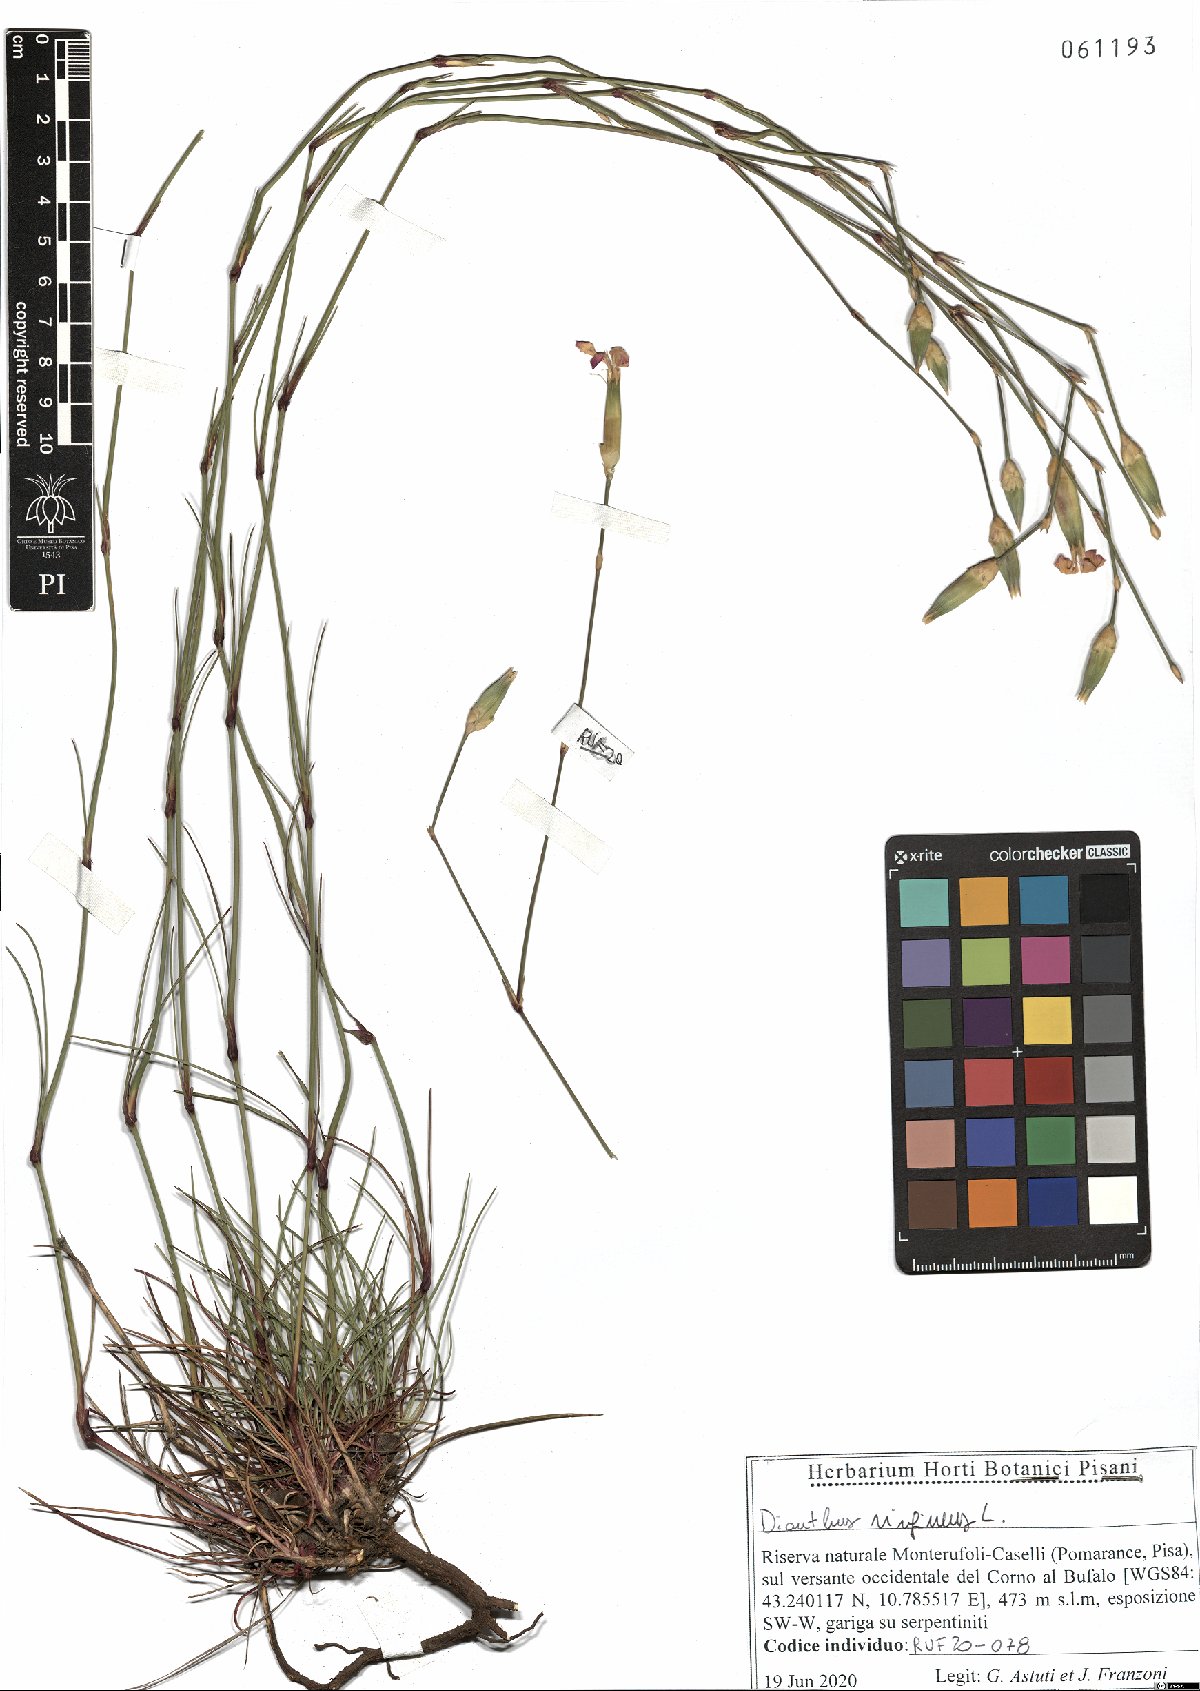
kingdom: Plantae
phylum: Tracheophyta
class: Magnoliopsida
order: Caryophyllales
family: Caryophyllaceae
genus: Dianthus
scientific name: Dianthus virgineus
